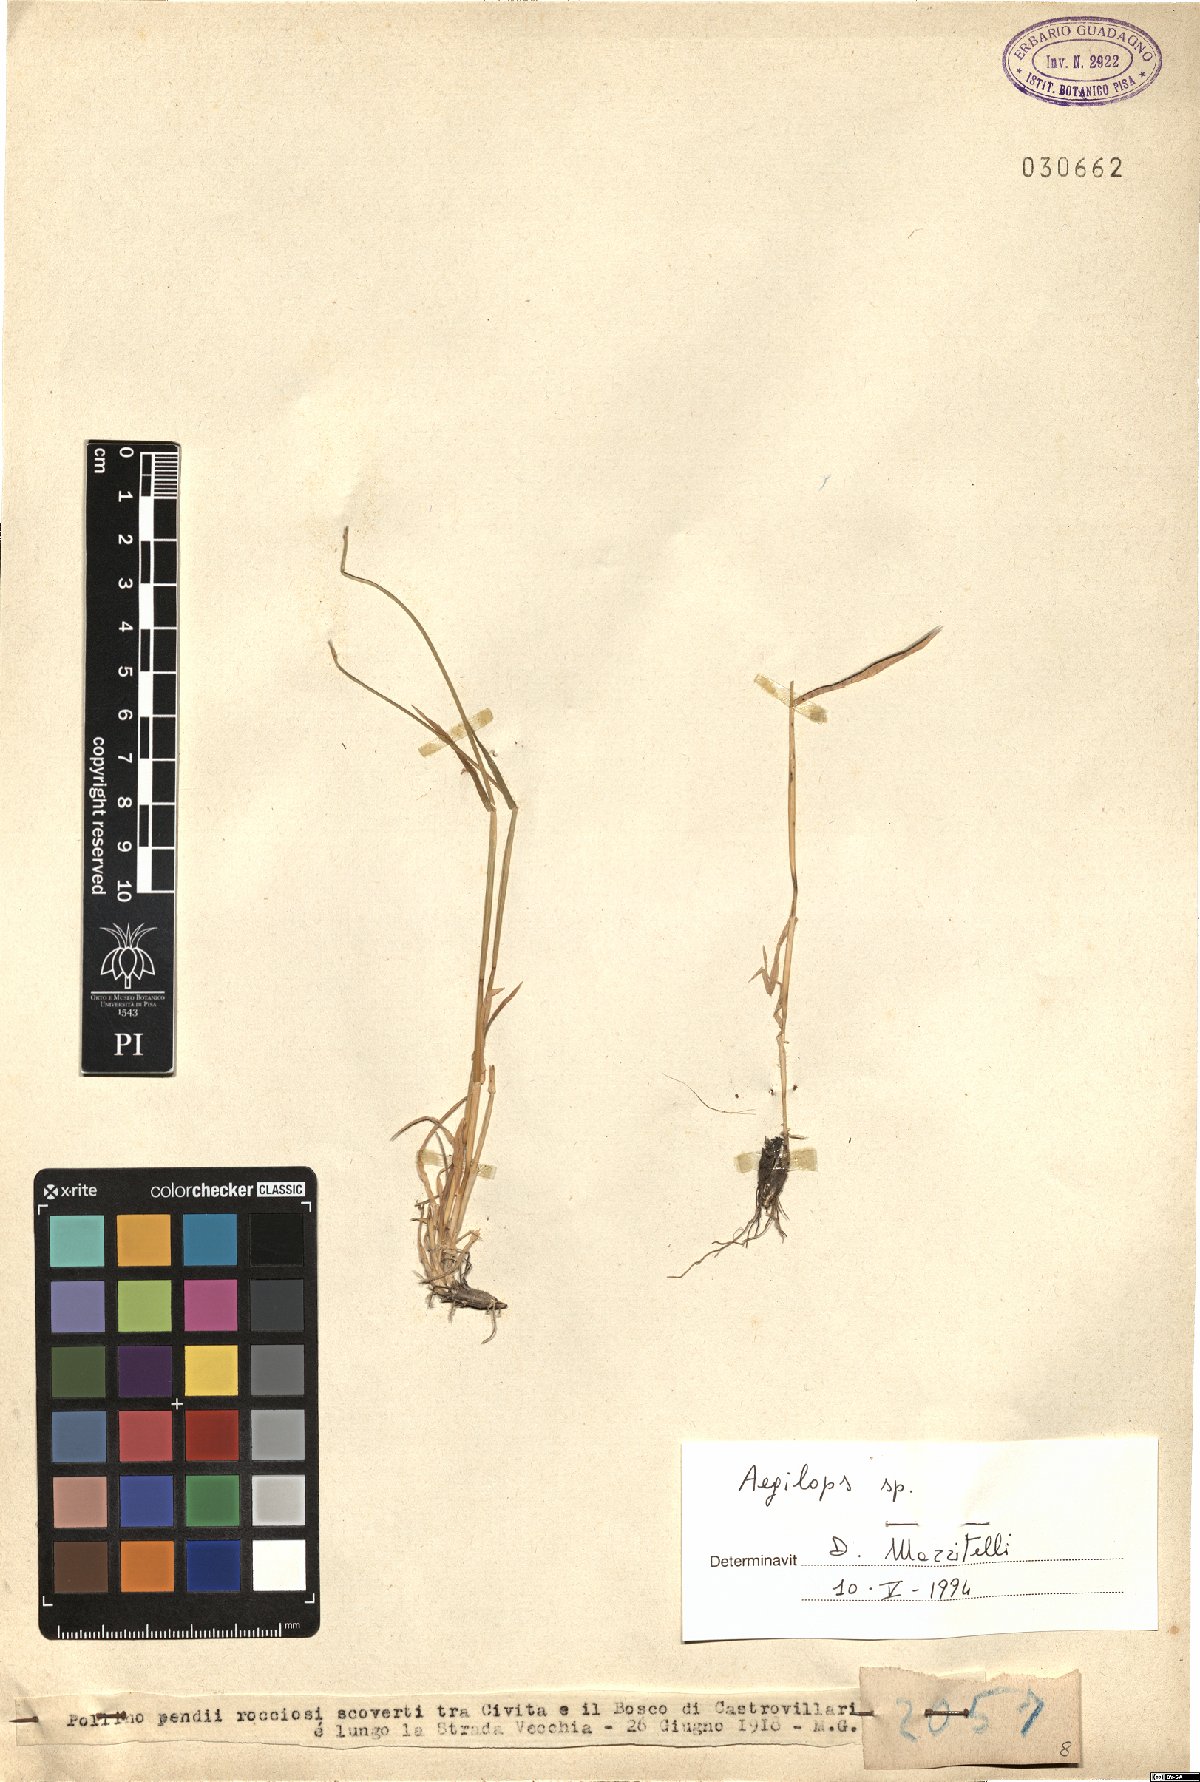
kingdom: Plantae
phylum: Tracheophyta
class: Liliopsida
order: Poales
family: Poaceae
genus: Aegilops
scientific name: Aegilops
